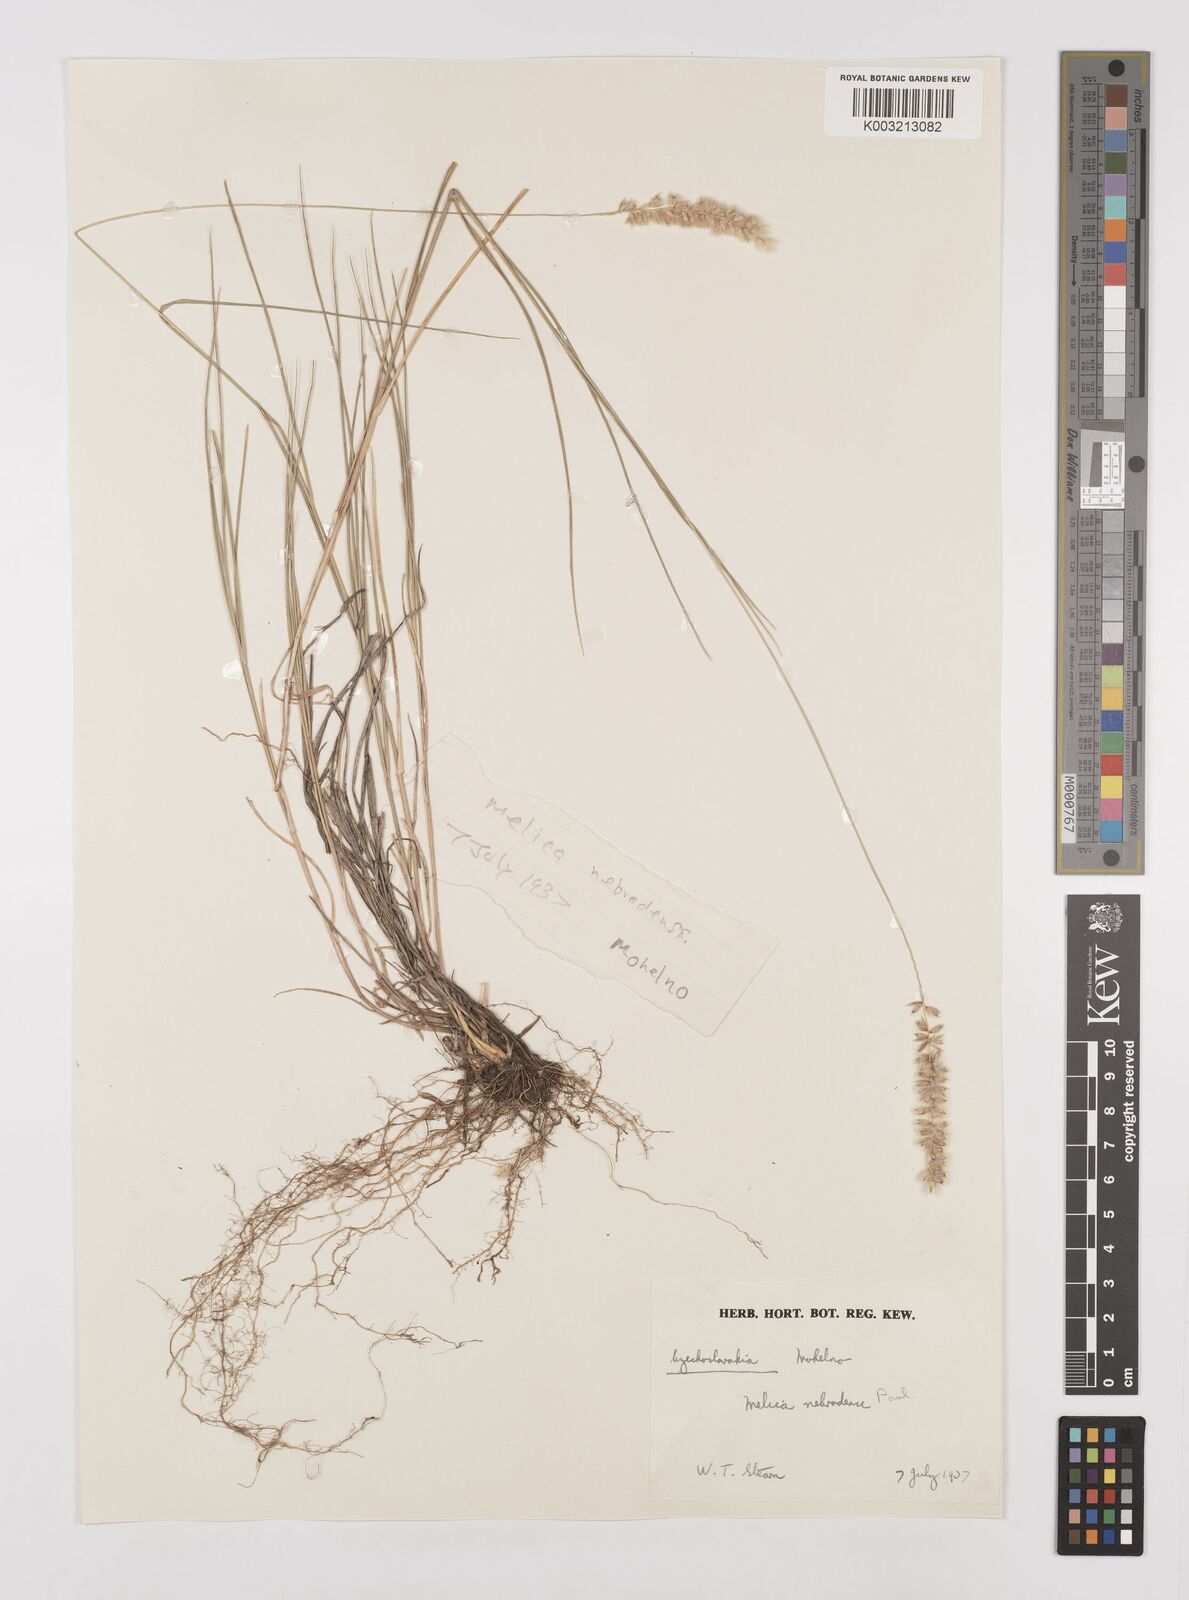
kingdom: Plantae
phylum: Tracheophyta
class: Liliopsida
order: Poales
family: Poaceae
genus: Melica
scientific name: Melica ciliata
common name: Hairy melicgrass
